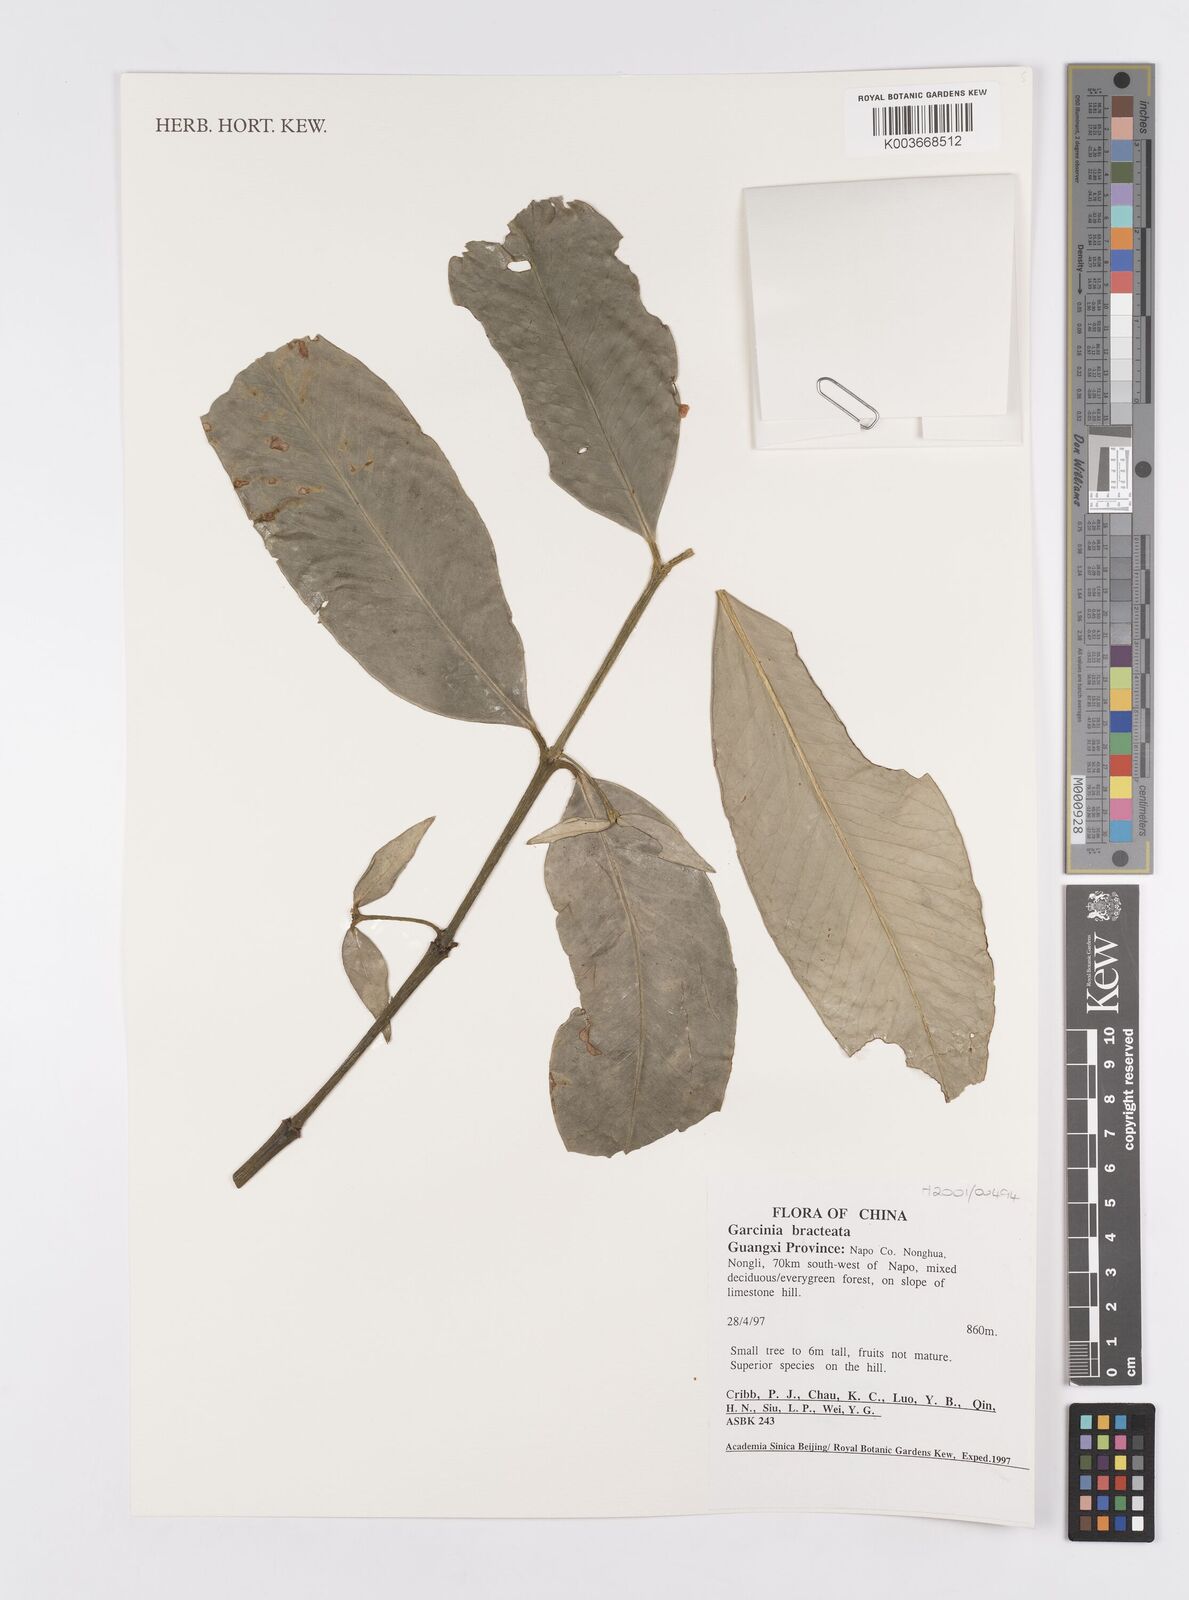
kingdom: Plantae
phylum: Tracheophyta
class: Magnoliopsida
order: Malpighiales
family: Clusiaceae
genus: Garcinia
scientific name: Garcinia anomala
